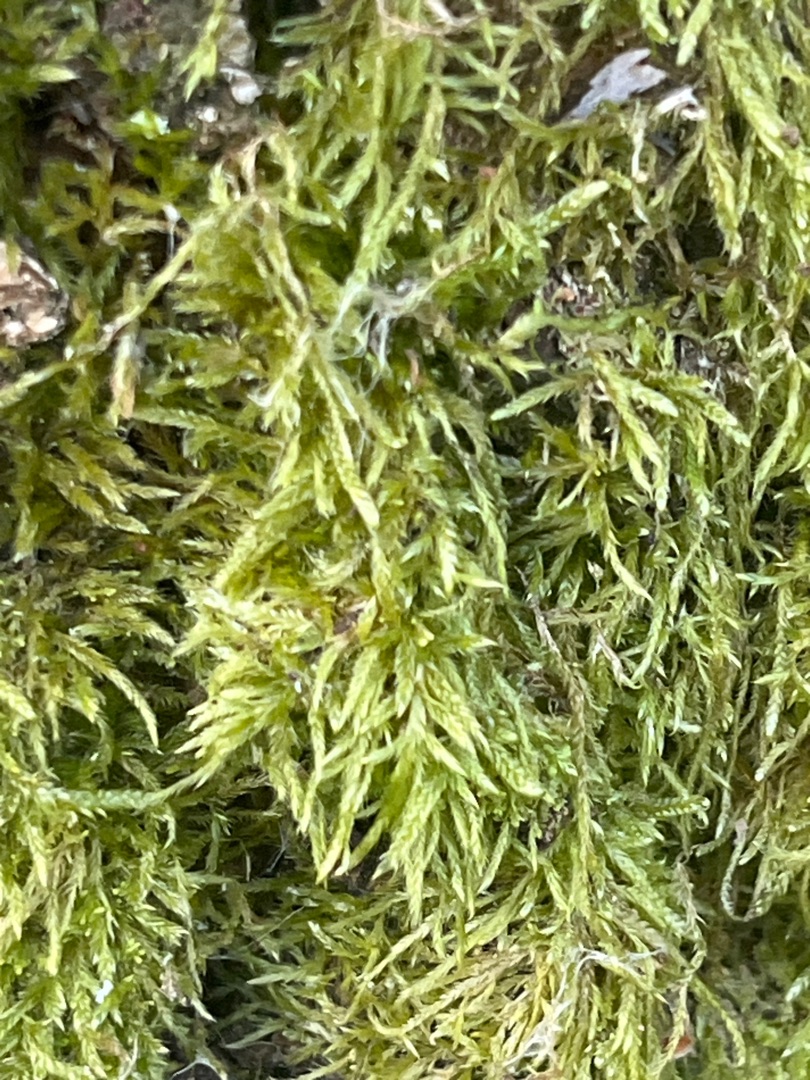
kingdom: Plantae
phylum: Bryophyta
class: Bryopsida
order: Hypnales
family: Hypnaceae
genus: Hypnum
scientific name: Hypnum cupressiforme
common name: Almindelig cypresmos
